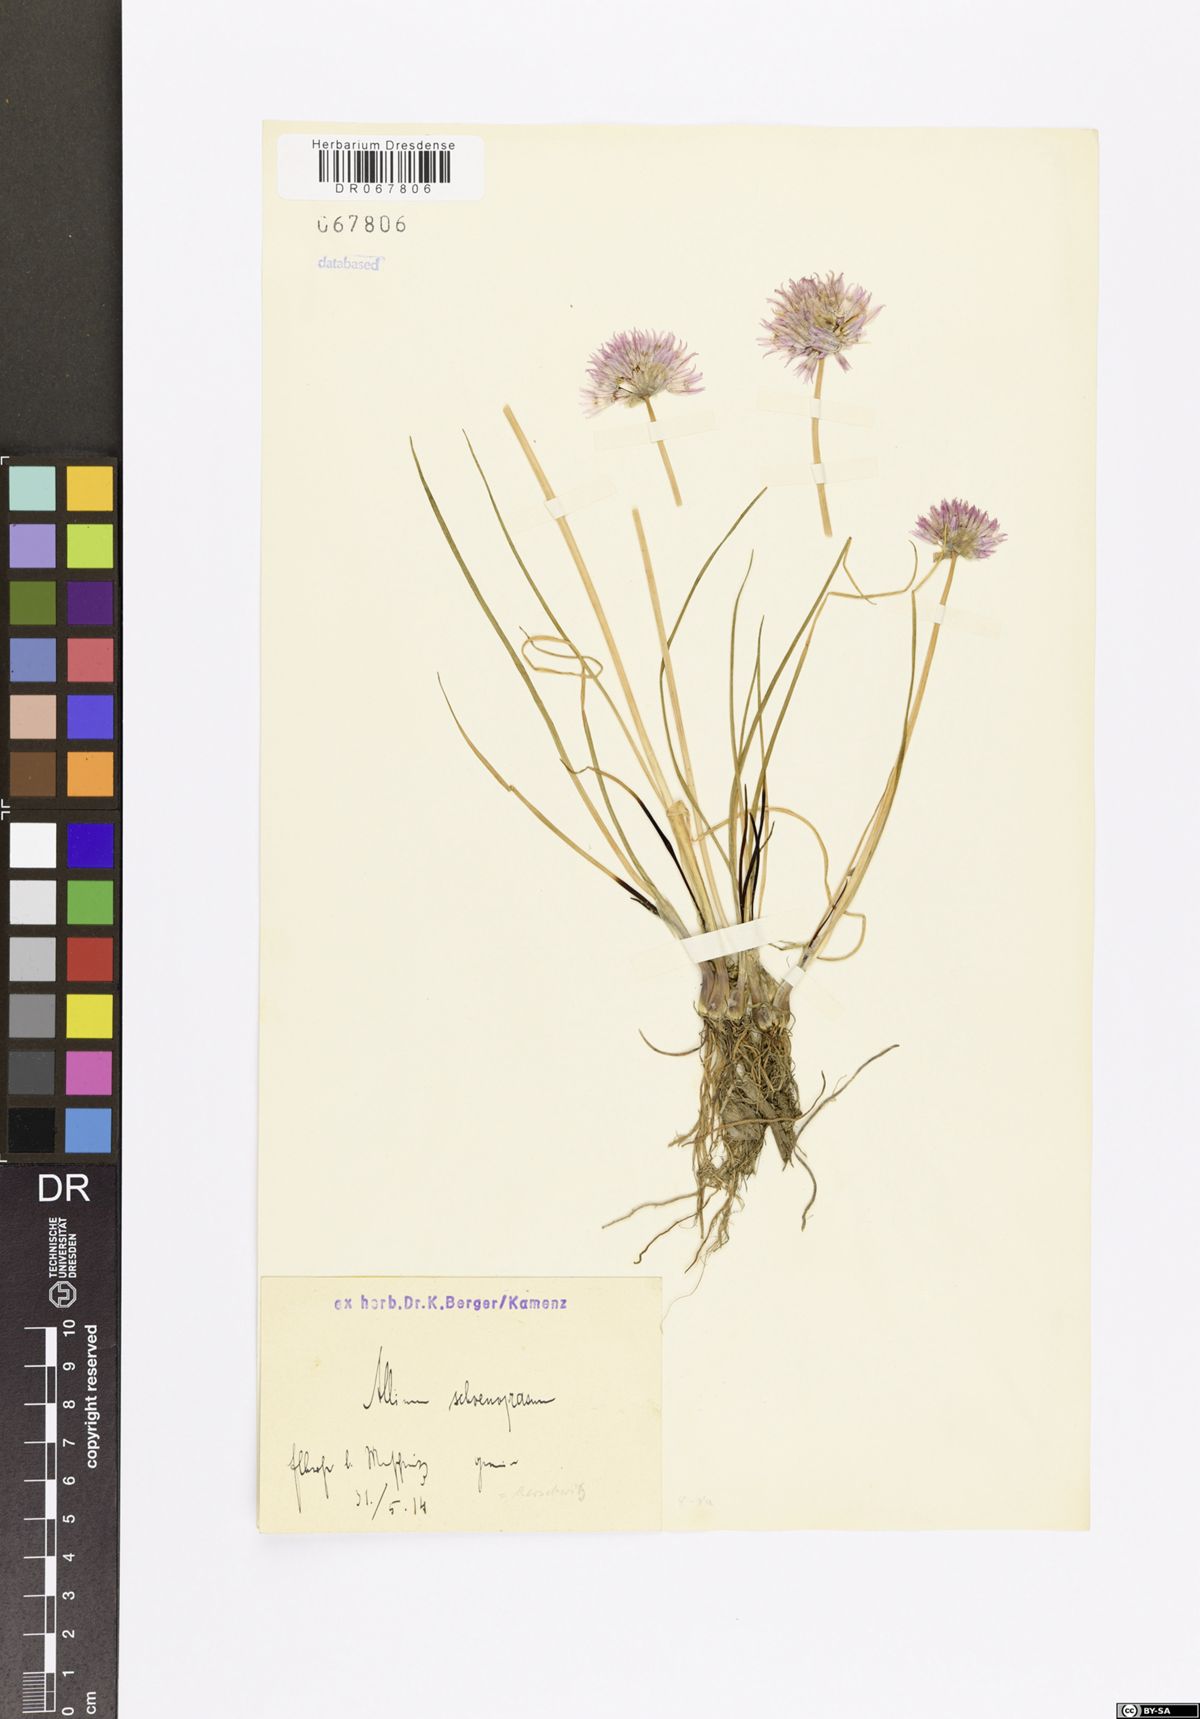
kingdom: Plantae
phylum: Tracheophyta
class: Liliopsida
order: Asparagales
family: Amaryllidaceae
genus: Allium
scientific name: Allium schoenoprasum
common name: Chives
